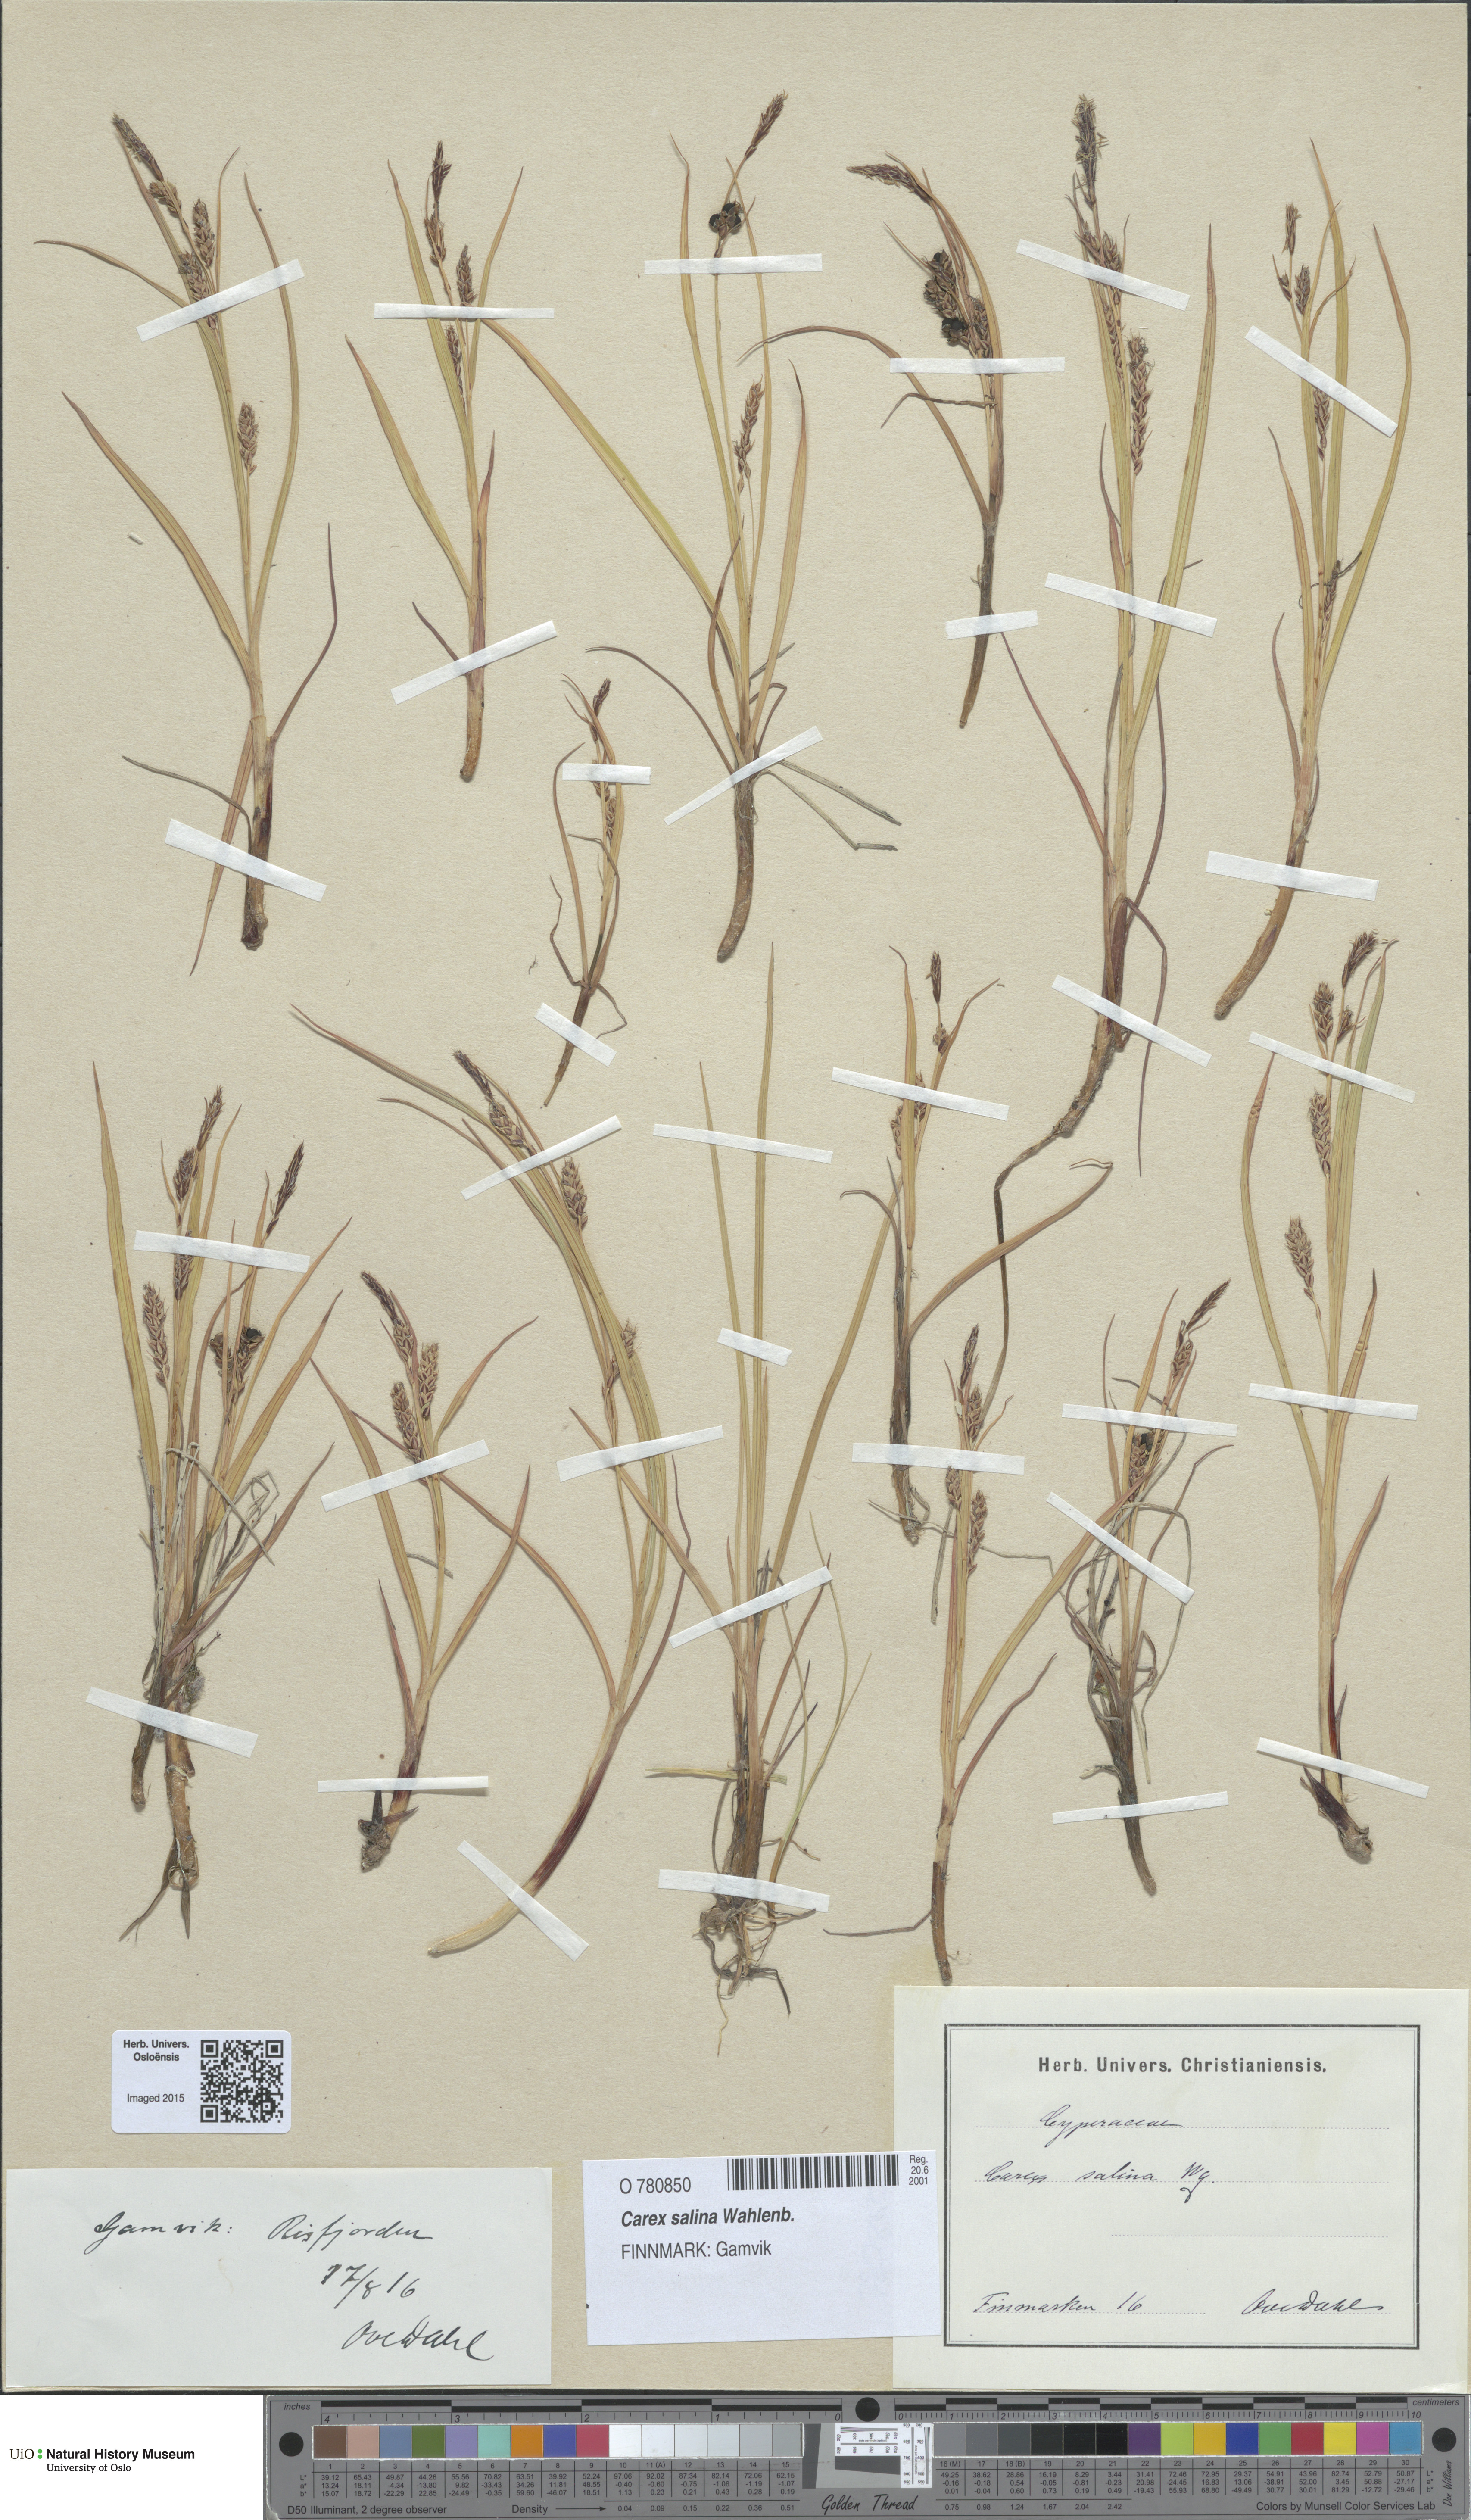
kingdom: Plantae
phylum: Tracheophyta
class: Liliopsida
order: Poales
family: Cyperaceae
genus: Carex
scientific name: Carex salina
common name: Saltmarsh sedge
